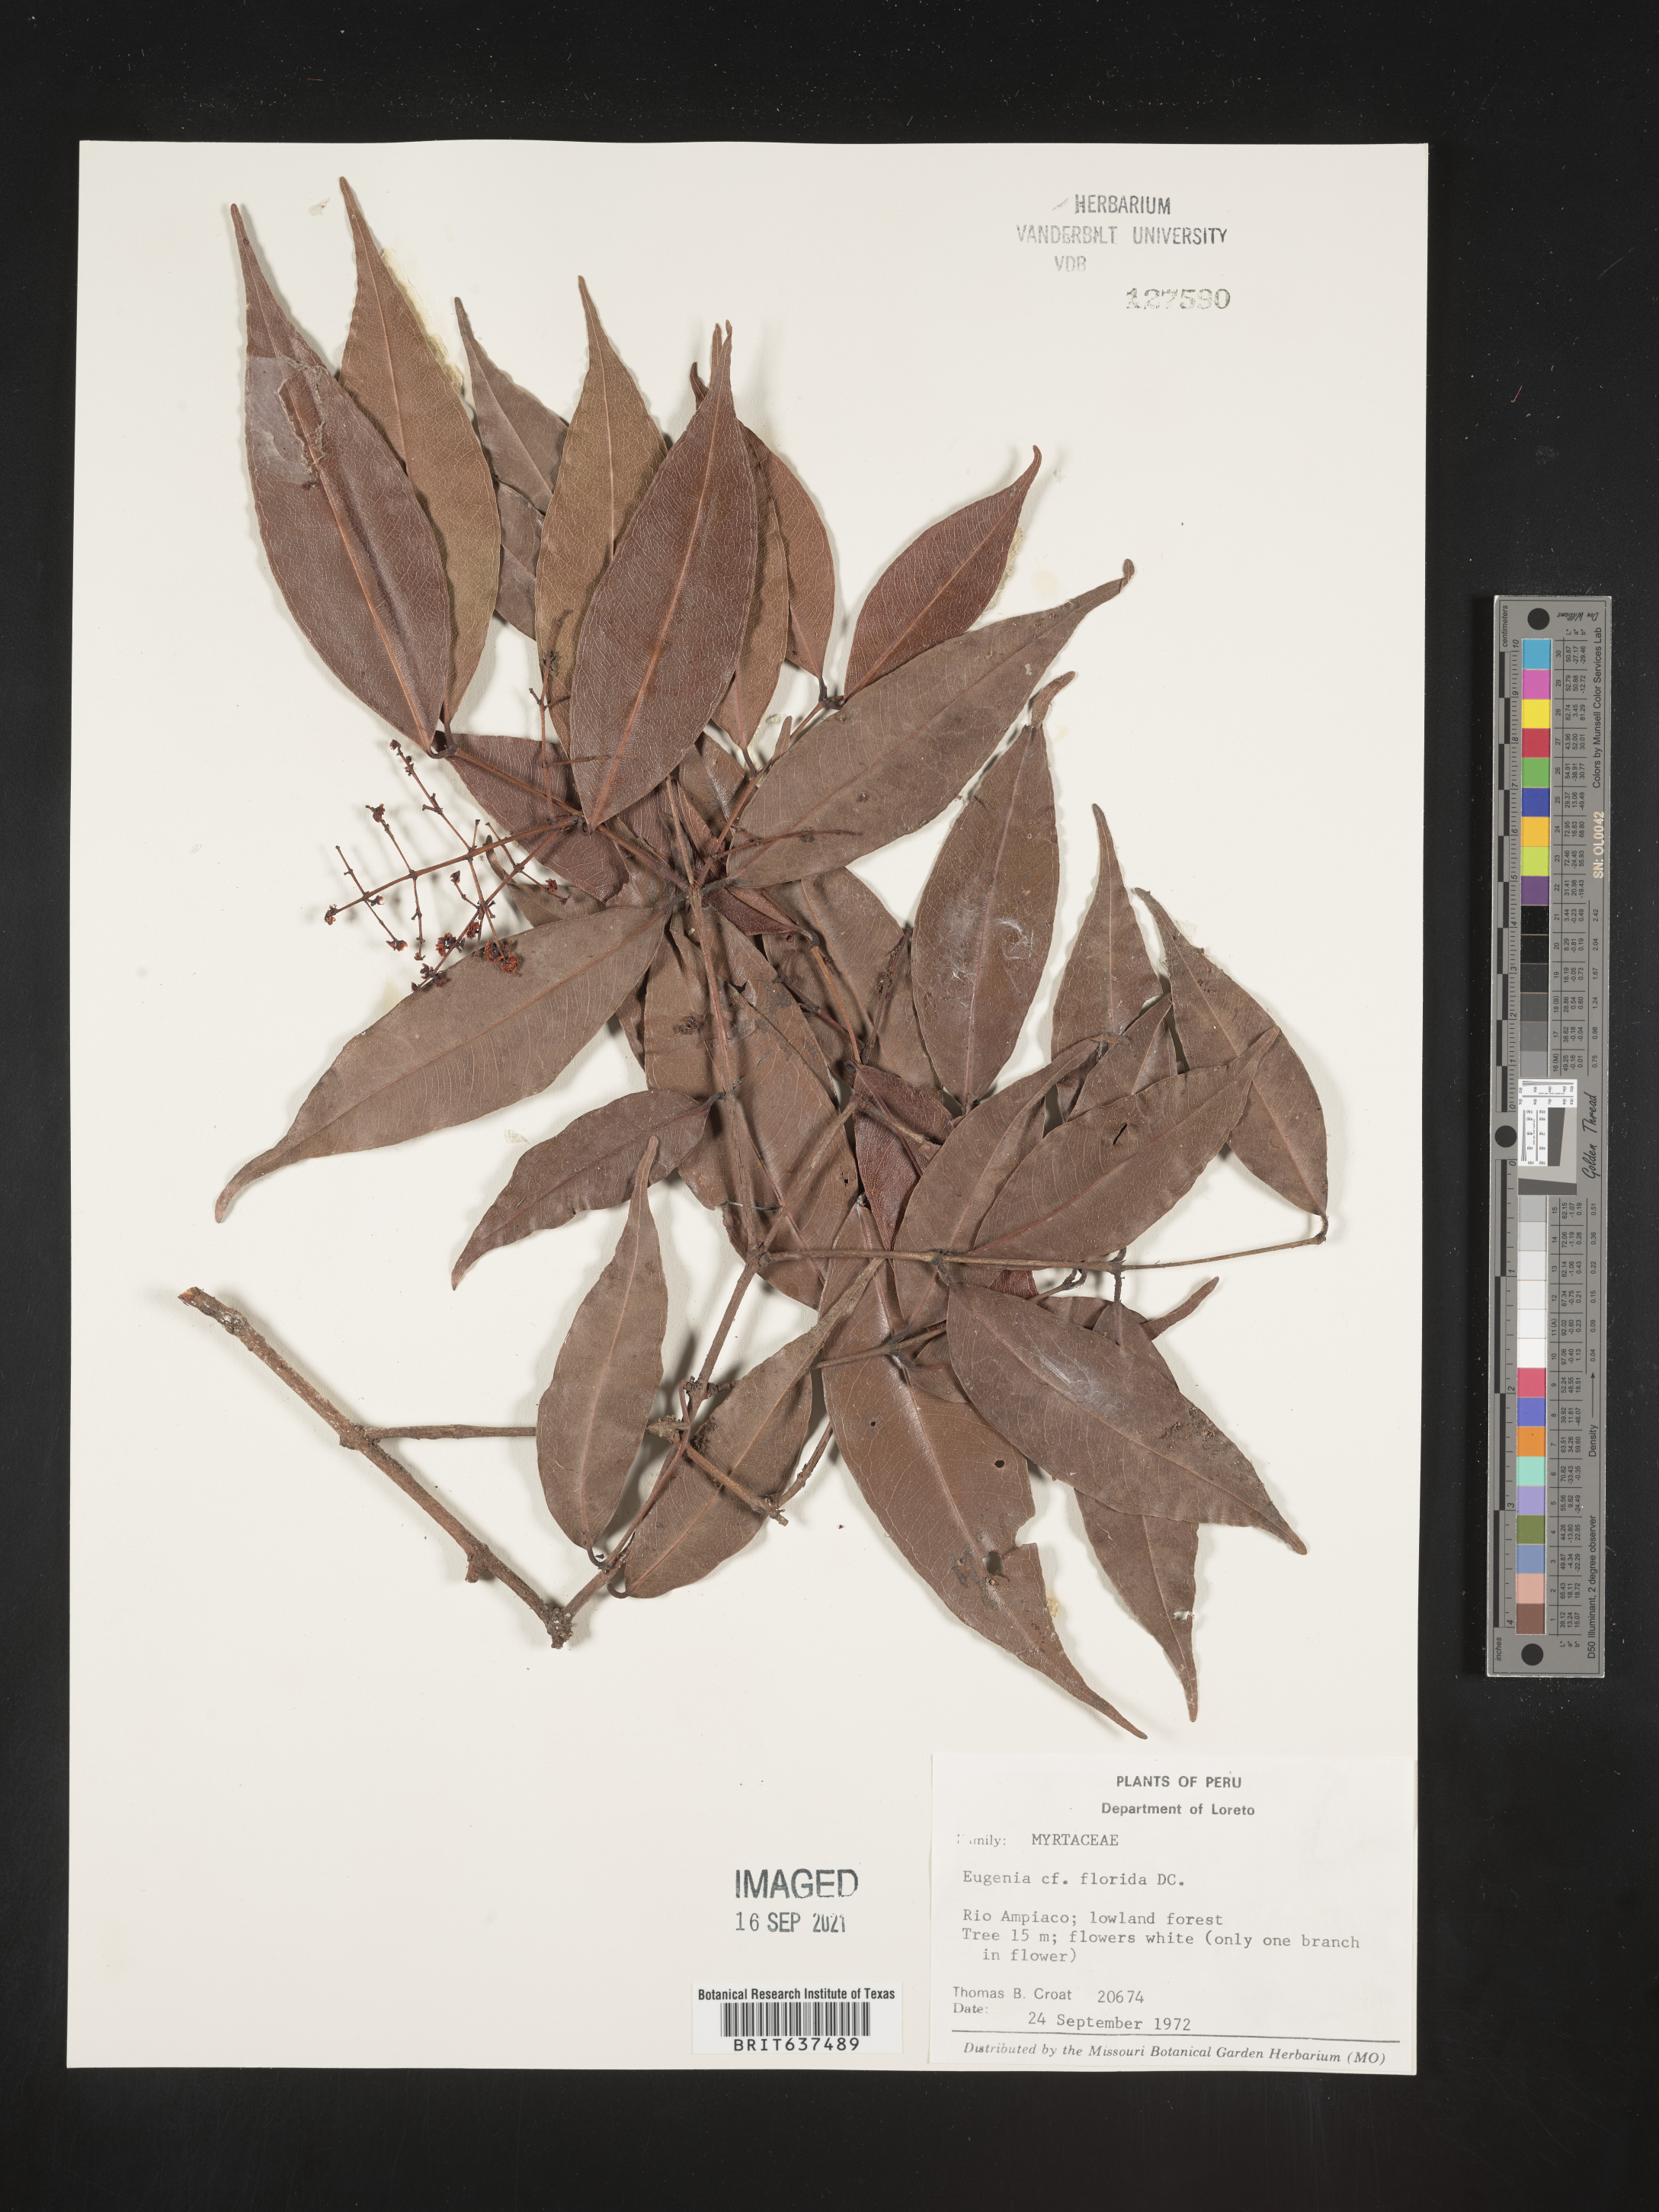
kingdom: Plantae
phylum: Tracheophyta
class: Magnoliopsida
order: Myrtales
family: Myrtaceae
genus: Eugenia
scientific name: Eugenia
